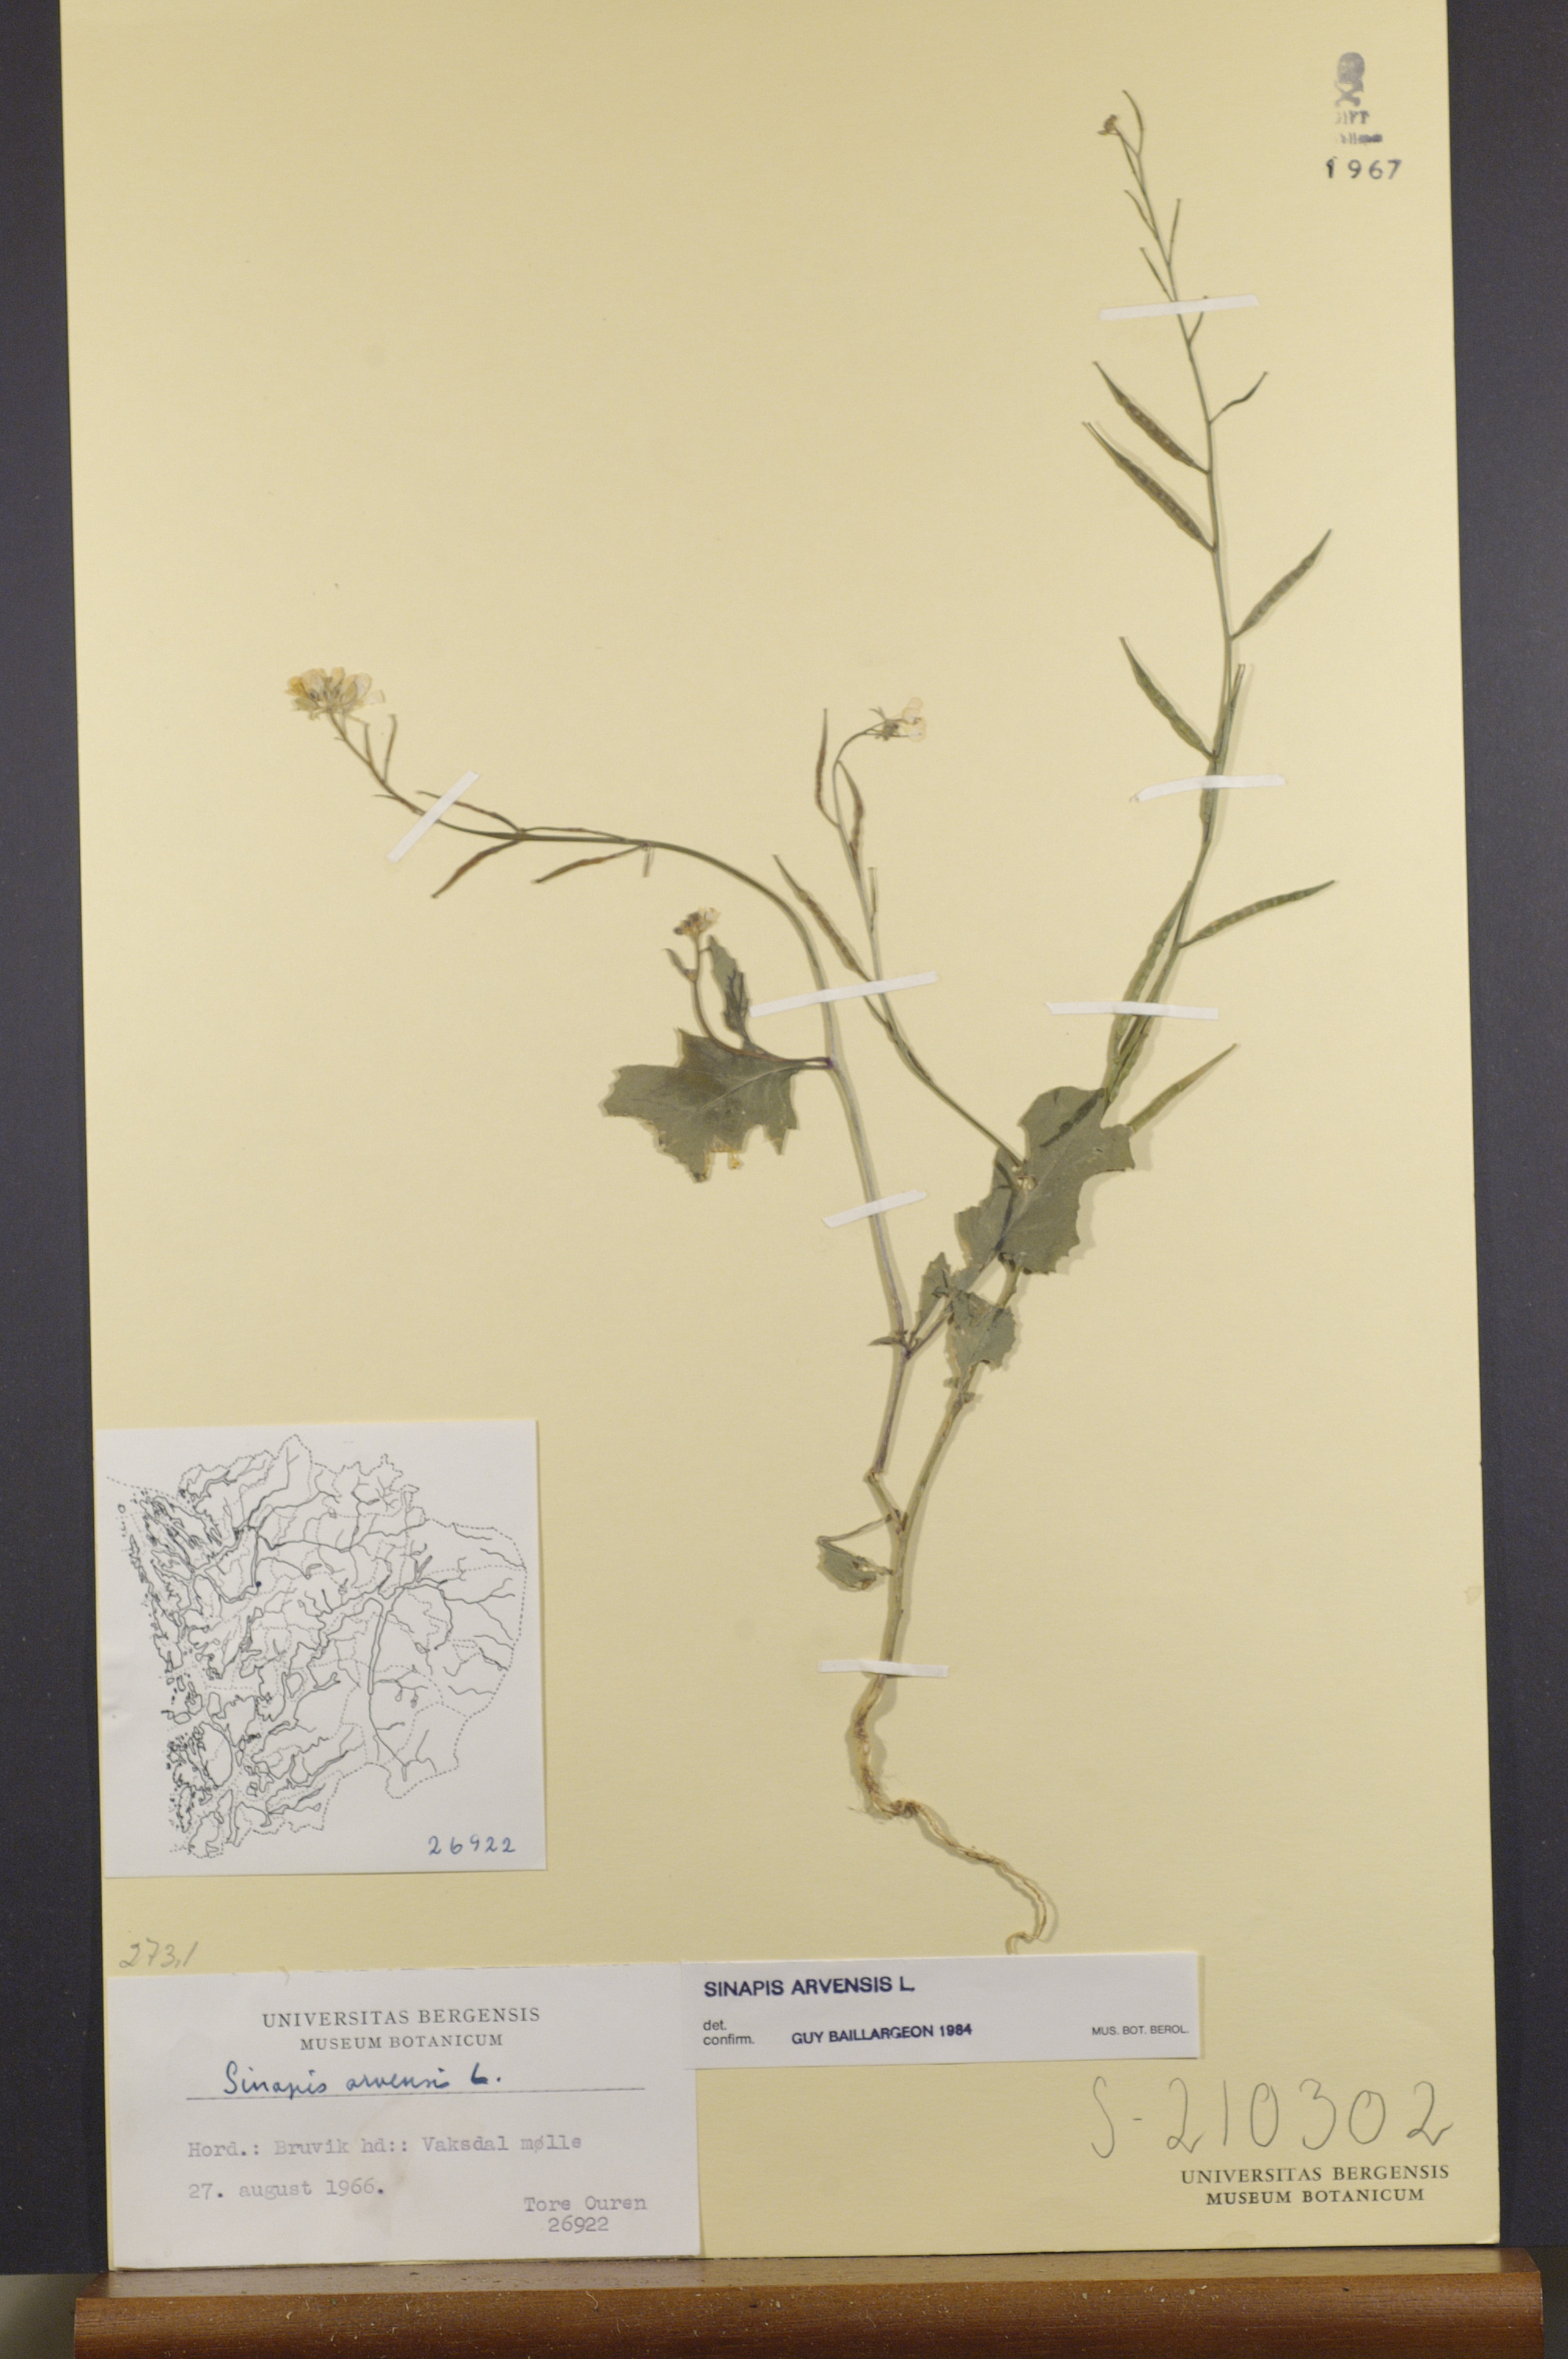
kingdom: Plantae
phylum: Tracheophyta
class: Magnoliopsida
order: Brassicales
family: Brassicaceae
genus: Sinapis
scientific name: Sinapis arvensis
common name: Charlock
